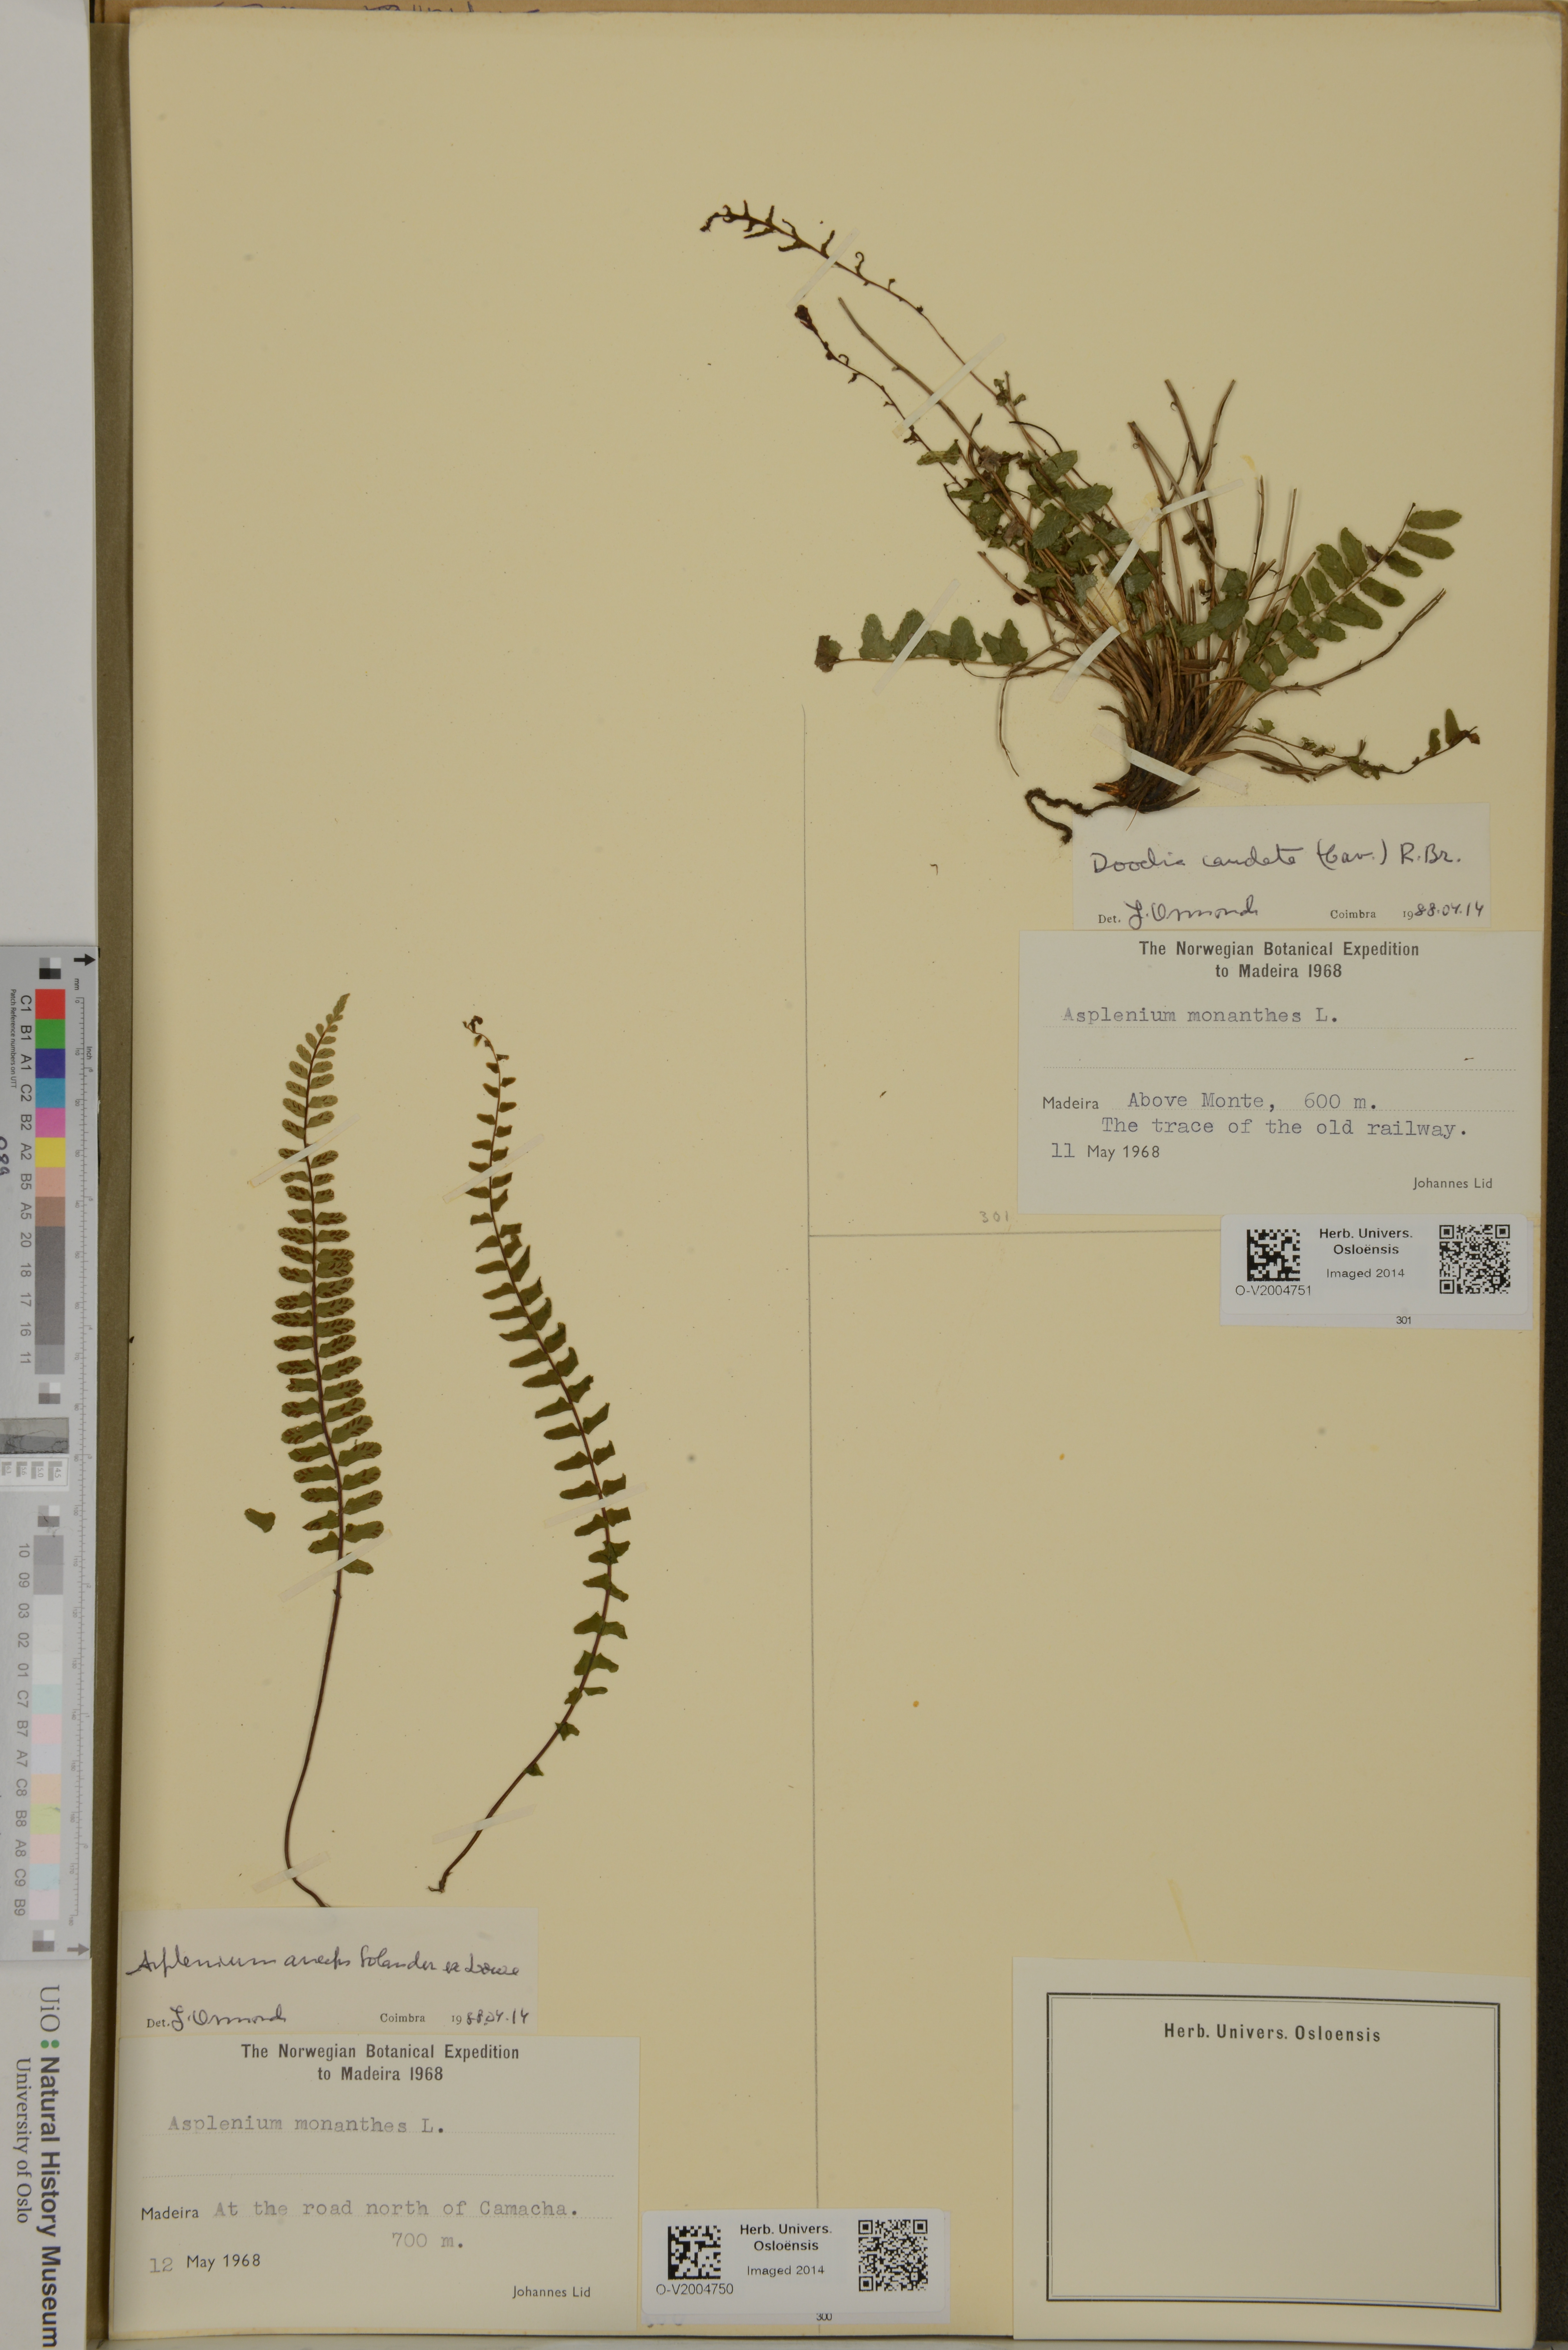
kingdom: Plantae
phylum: Tracheophyta
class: Polypodiopsida
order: Polypodiales
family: Blechnaceae
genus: Doodia
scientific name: Doodia caudata
